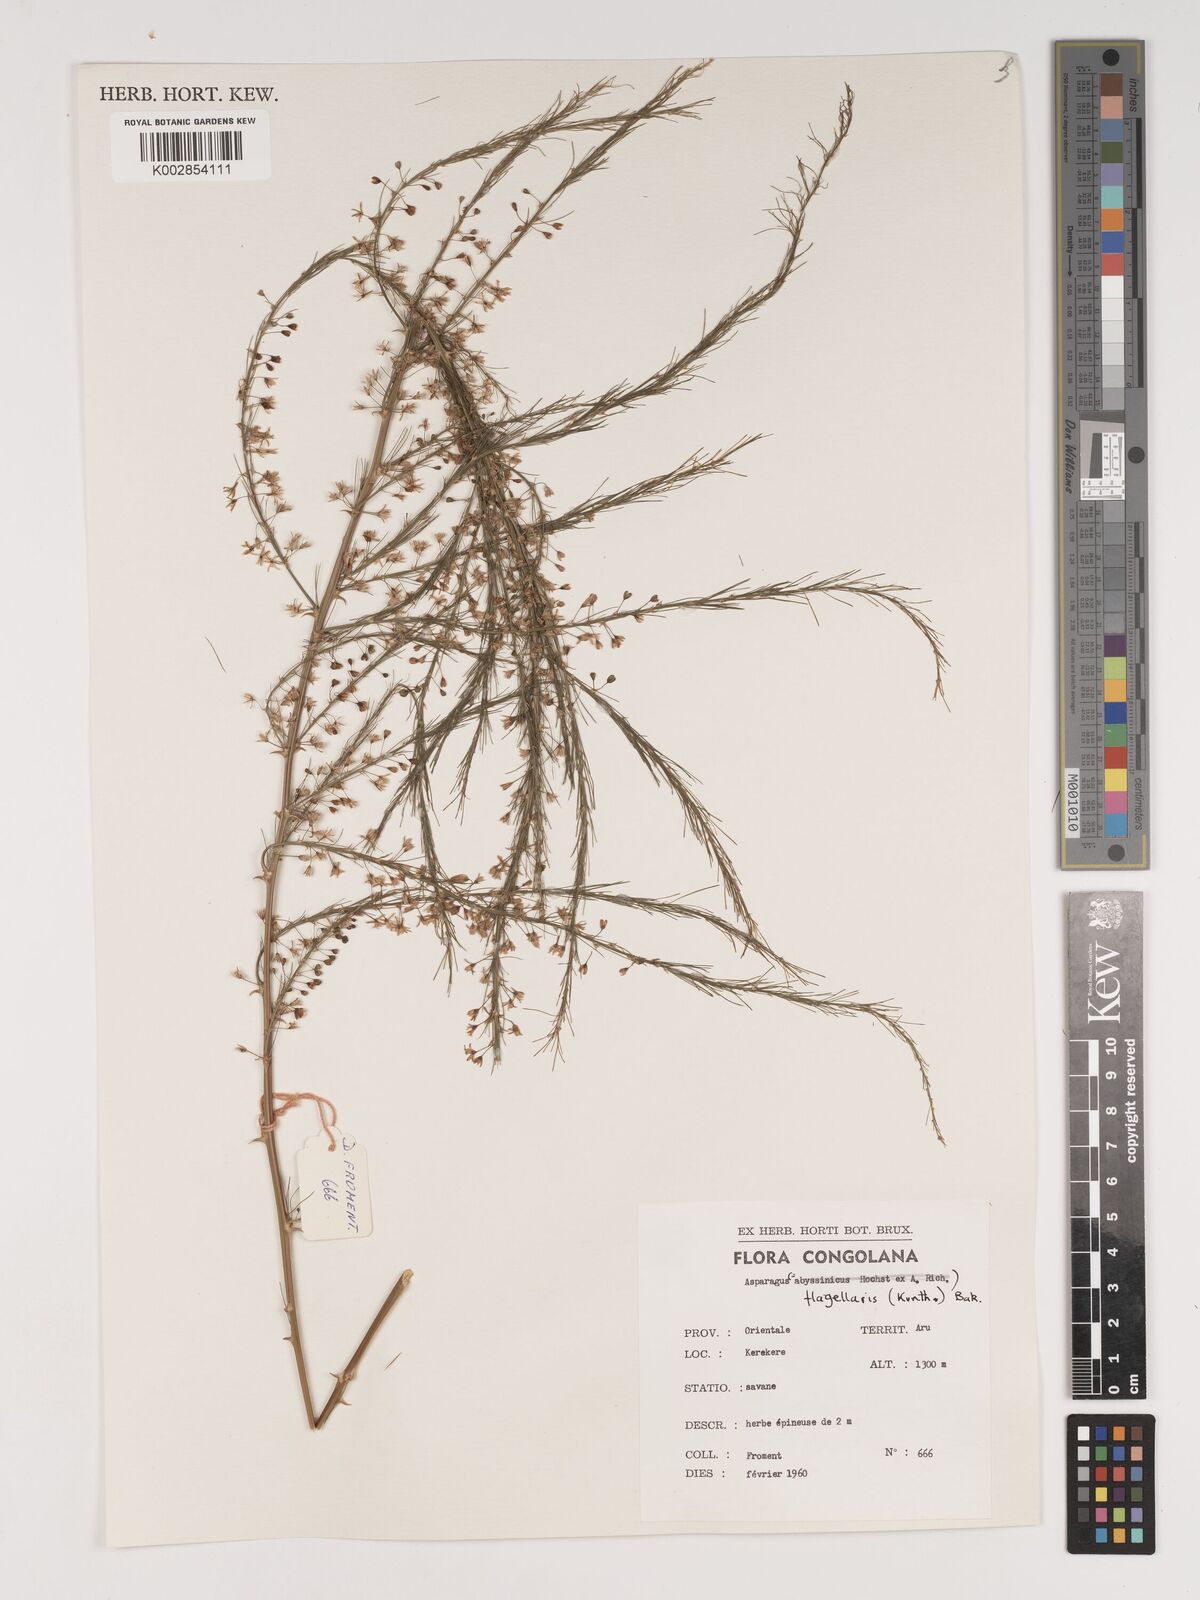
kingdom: Plantae
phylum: Tracheophyta
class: Liliopsida
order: Asparagales
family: Asparagaceae
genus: Asparagus
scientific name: Asparagus flagellaris
